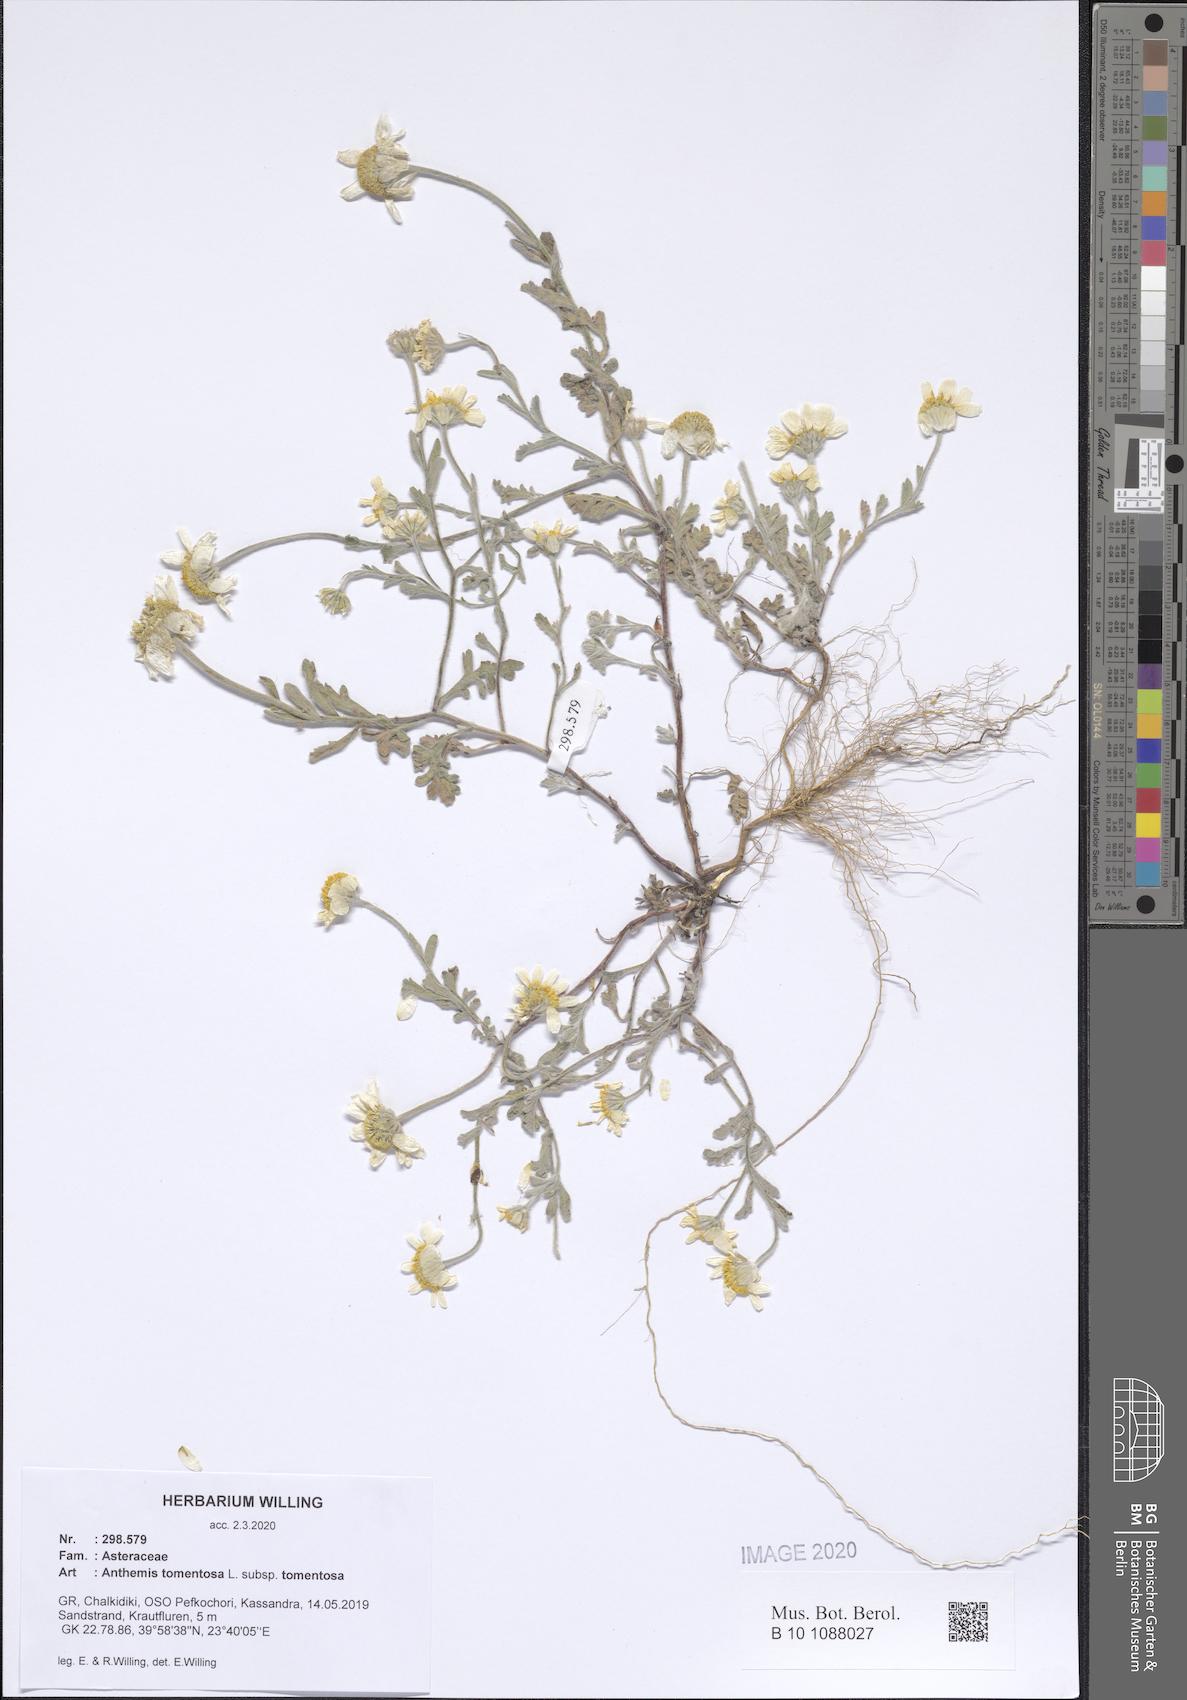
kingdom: Plantae
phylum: Tracheophyta
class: Magnoliopsida
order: Asterales
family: Asteraceae
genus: Anthemis
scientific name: Anthemis tomentosa
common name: Woolly chamomile
